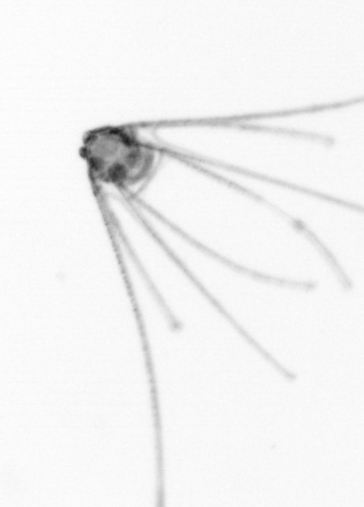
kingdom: Animalia
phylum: Echinodermata
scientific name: Echinodermata
